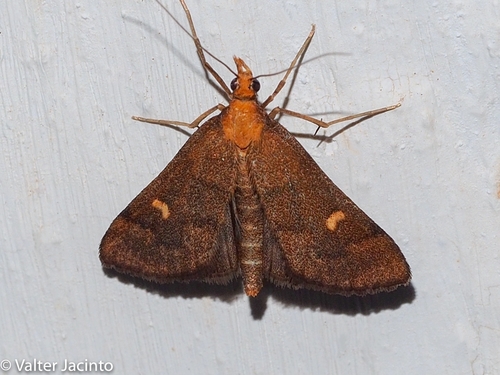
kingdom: Animalia
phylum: Arthropoda
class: Insecta
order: Lepidoptera
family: Crambidae
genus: Stenia
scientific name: Stenia Dolicharthria punctalis
